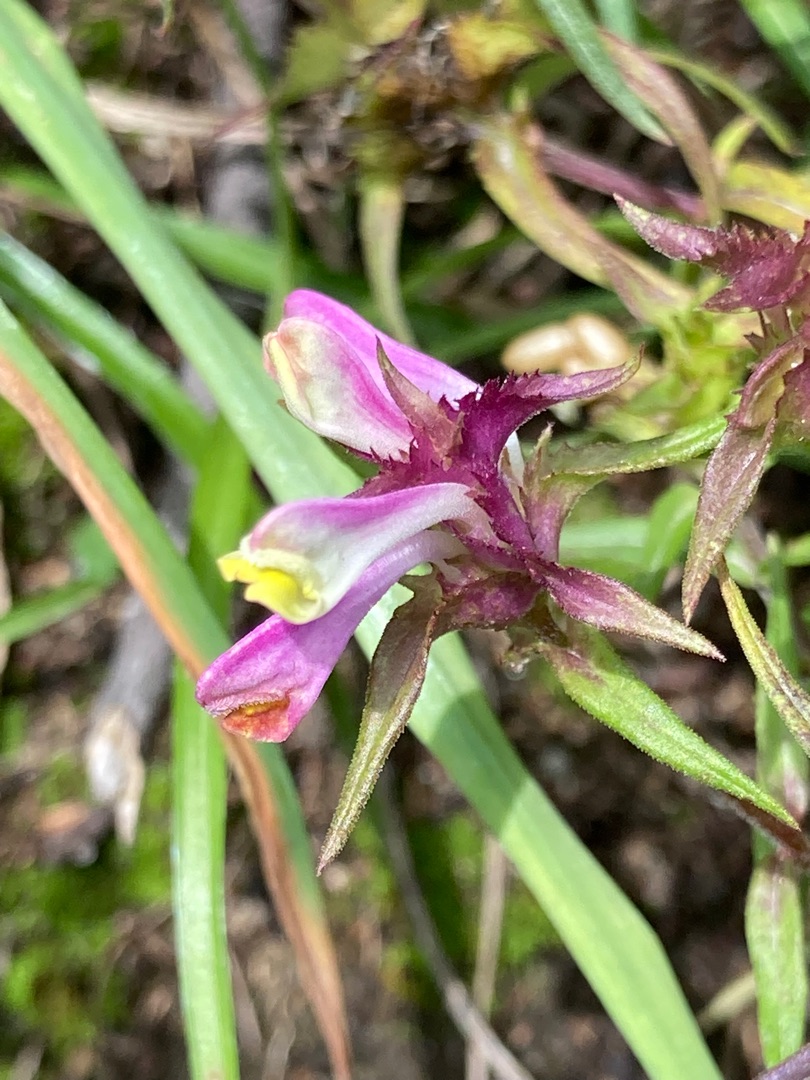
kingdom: Plantae
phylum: Tracheophyta
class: Magnoliopsida
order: Lamiales
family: Orobanchaceae
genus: Melampyrum
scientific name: Melampyrum cristatum
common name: Kantet kohvede
